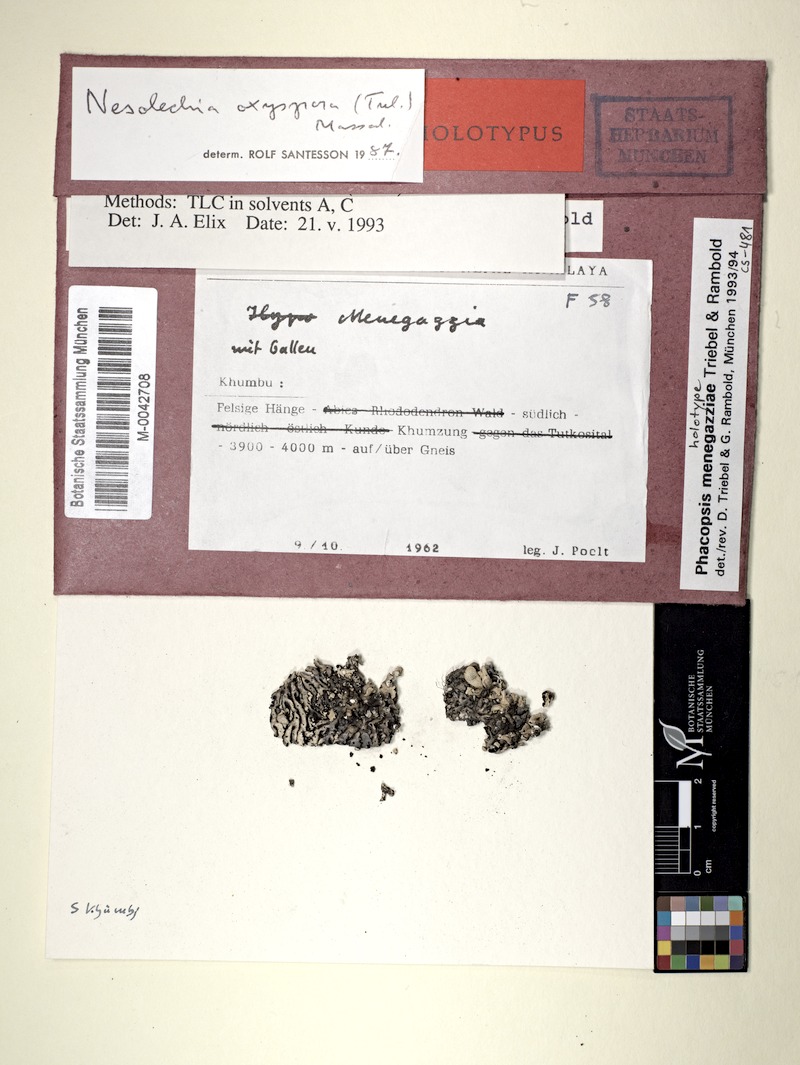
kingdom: Fungi
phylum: Ascomycota
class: Lecanoromycetes
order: Lecanorales
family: Parmeliaceae
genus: Menegazzia
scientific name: Menegazzia terebrata
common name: Magic treeflute lichen
